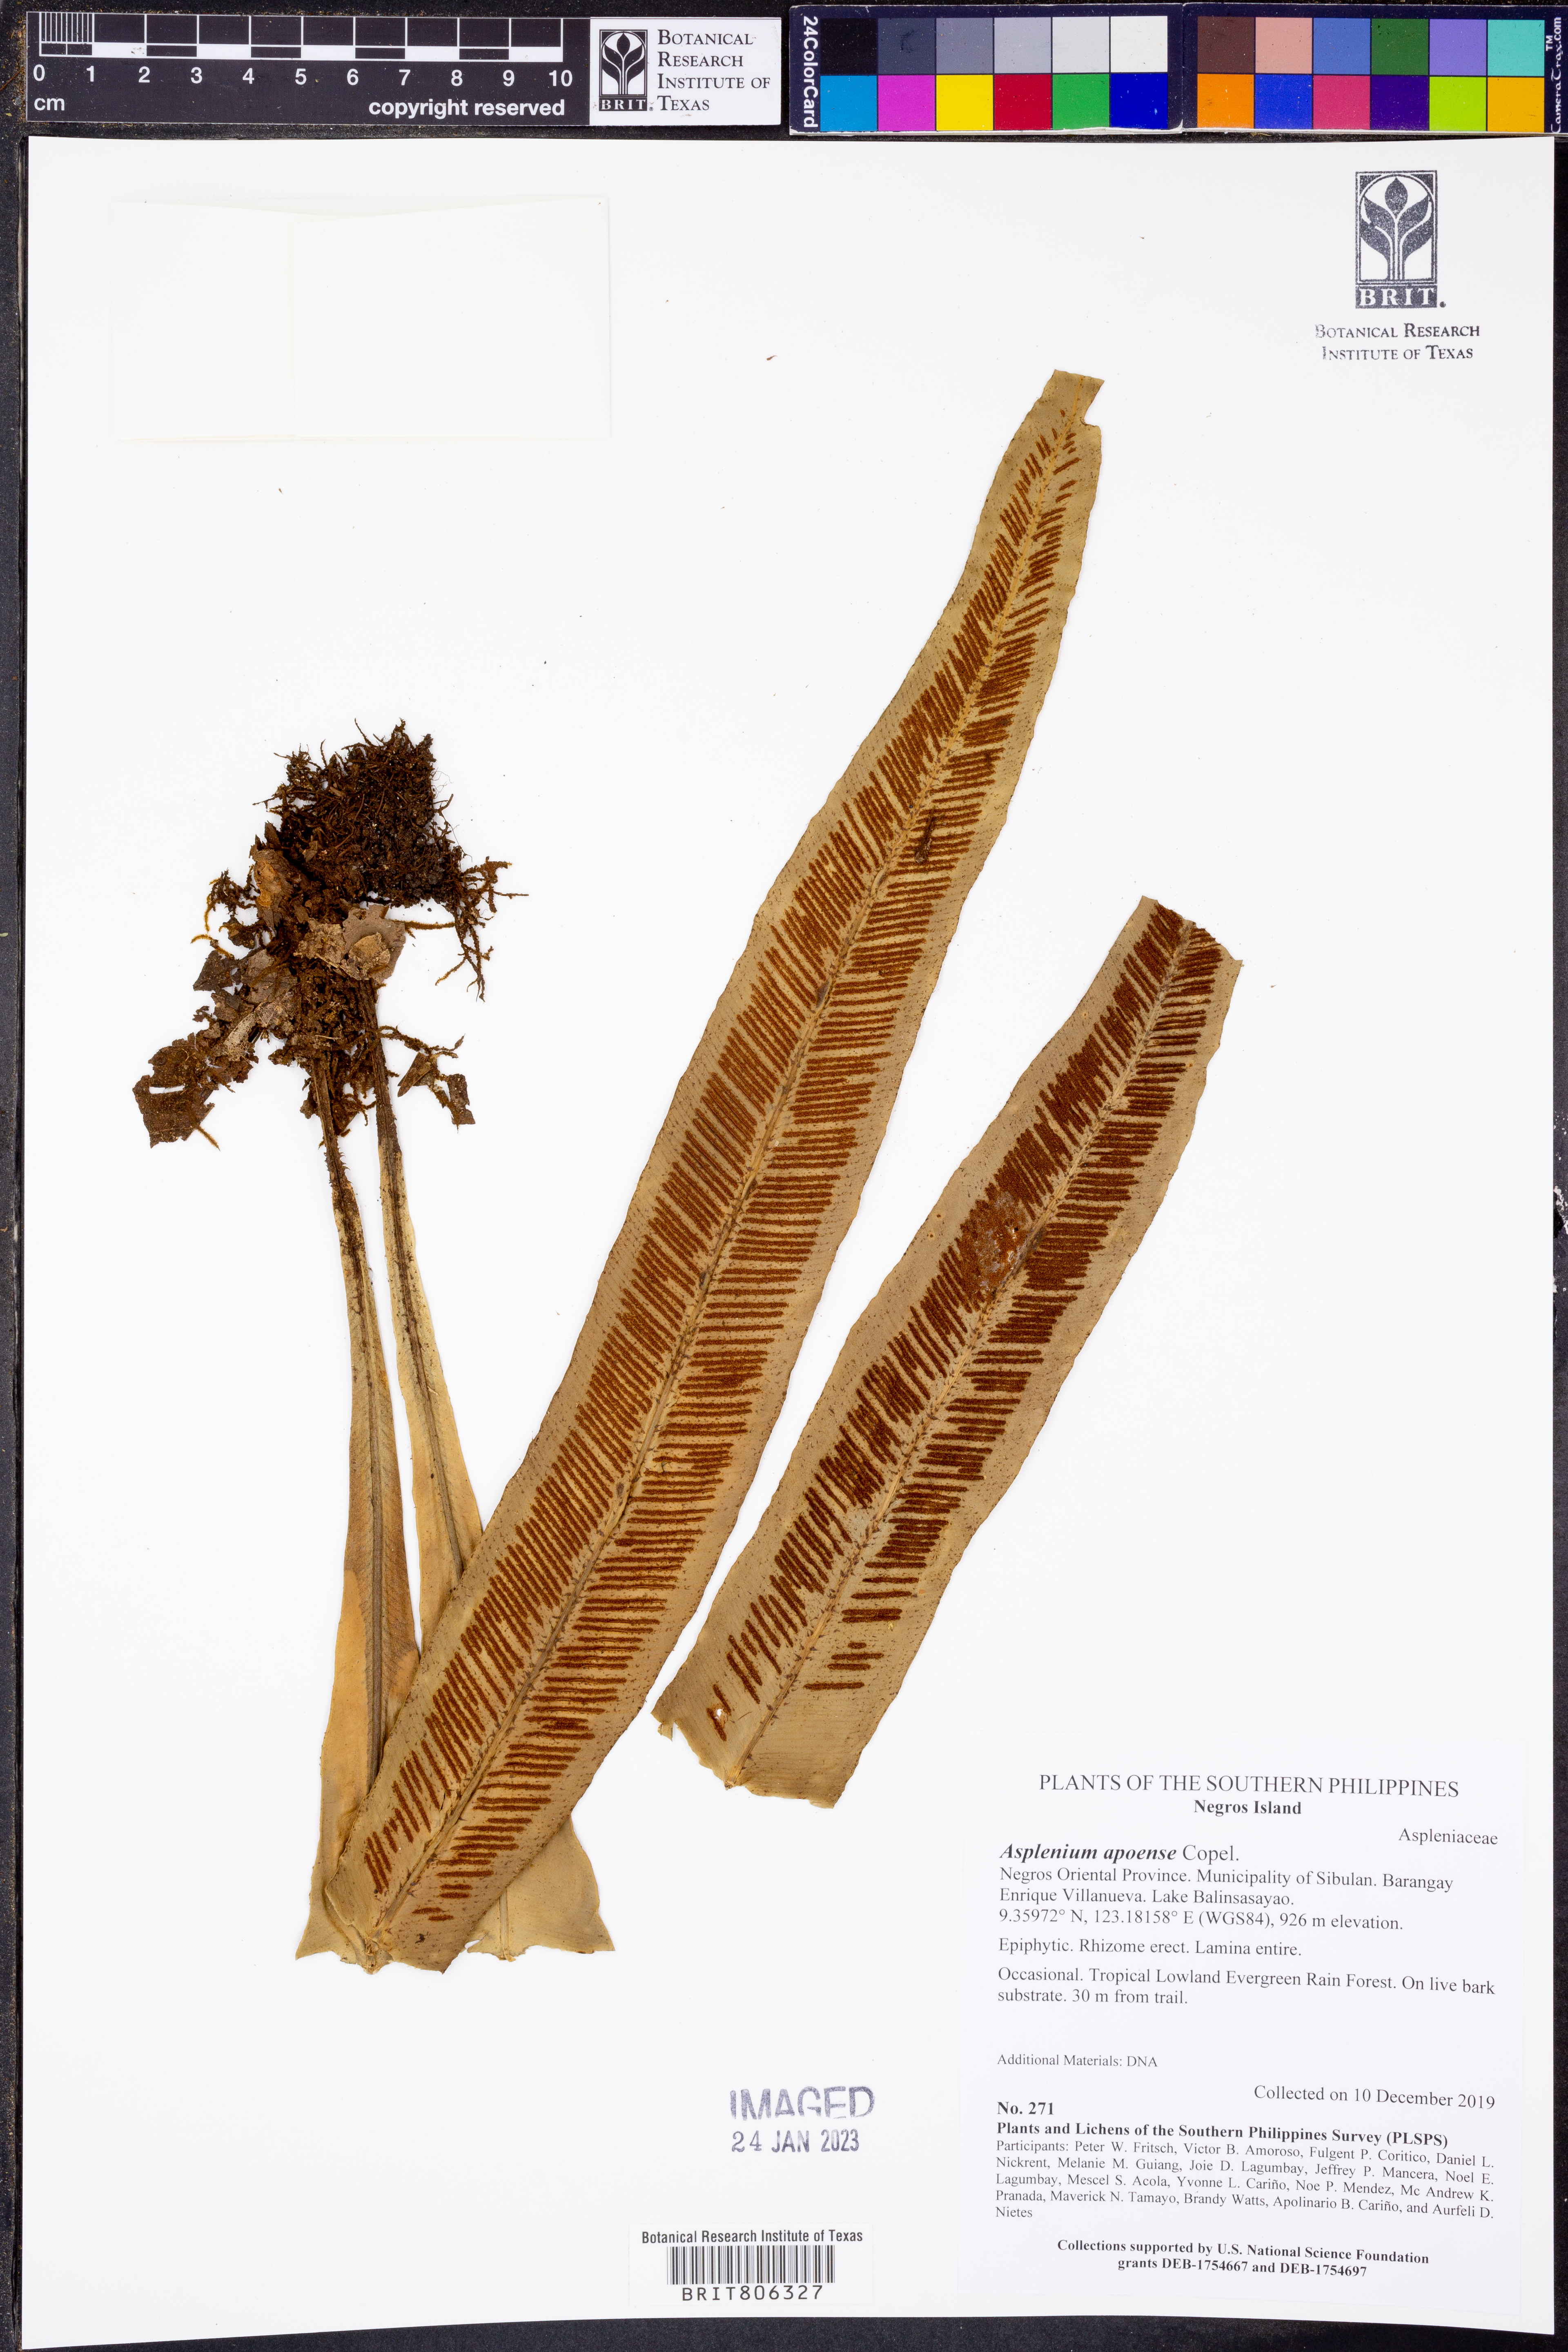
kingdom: Plantae
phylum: Tracheophyta
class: Polypodiopsida
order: Polypodiales
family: Aspleniaceae
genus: Asplenium
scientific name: Asplenium apoense
